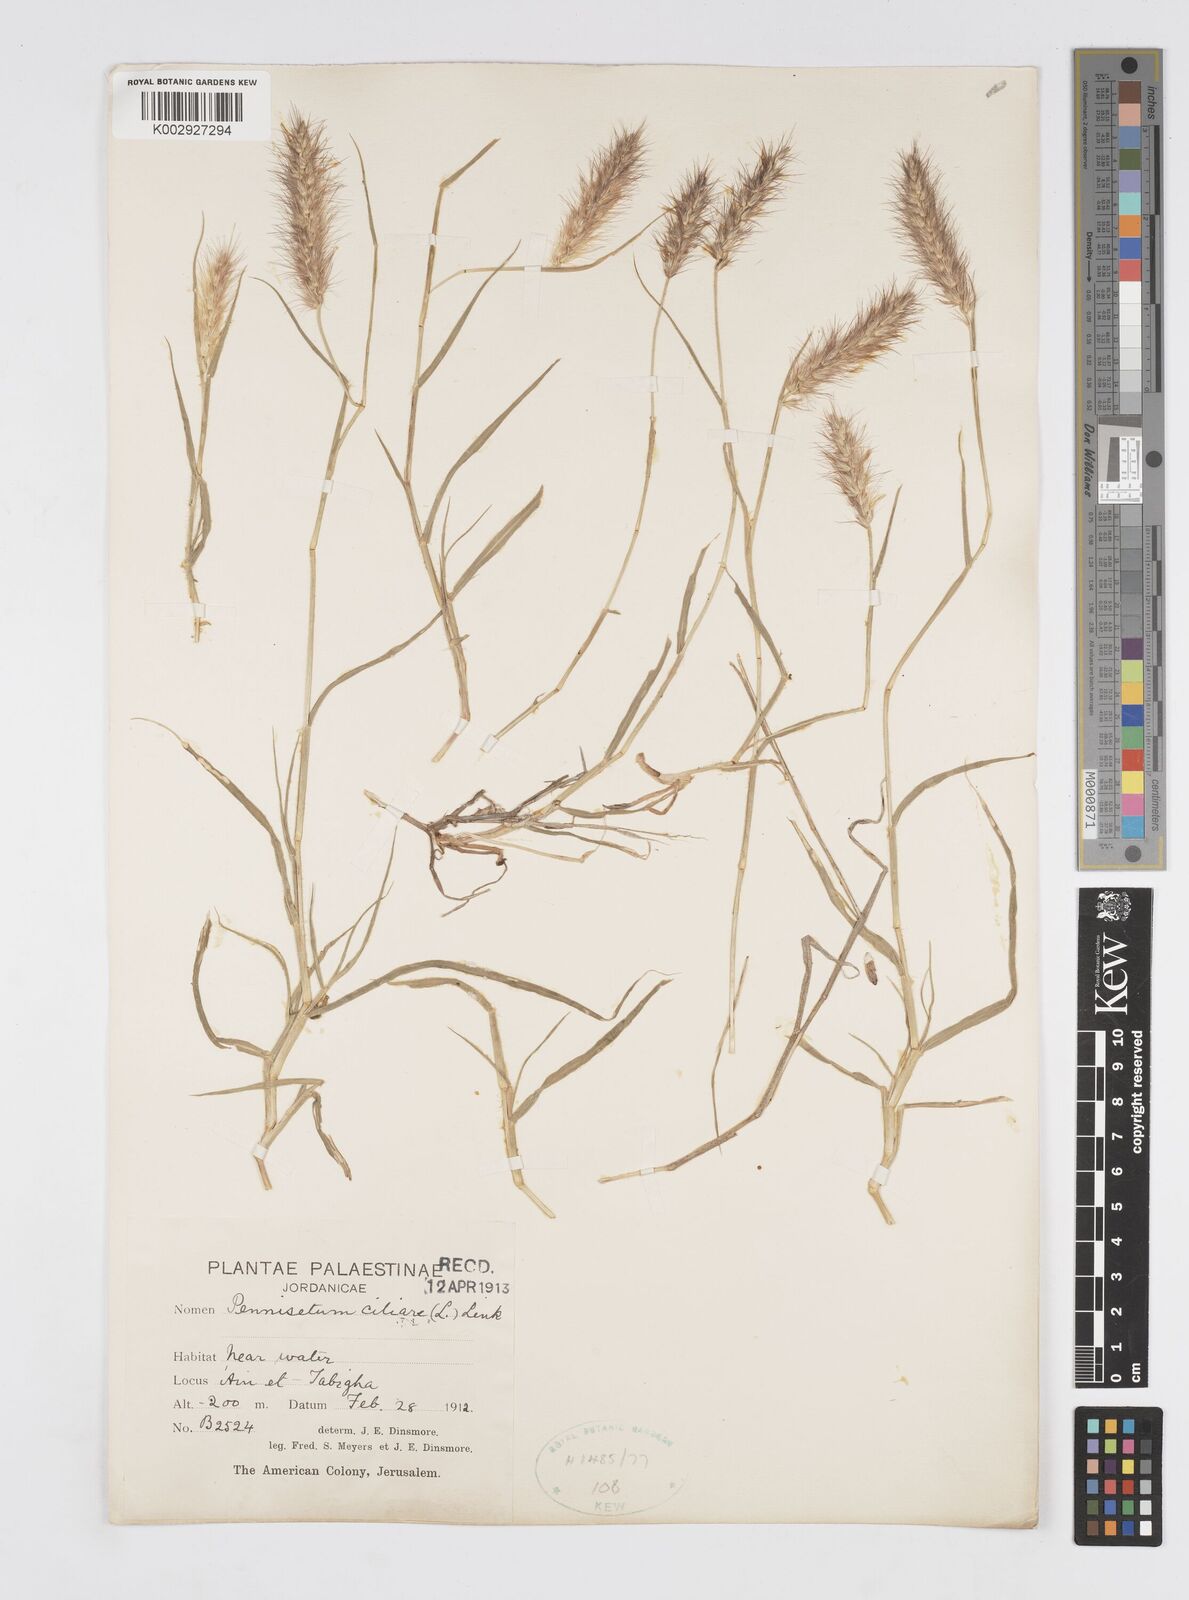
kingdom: Plantae
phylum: Tracheophyta
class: Liliopsida
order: Poales
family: Poaceae
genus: Cenchrus
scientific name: Cenchrus ciliaris
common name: Buffelgrass
